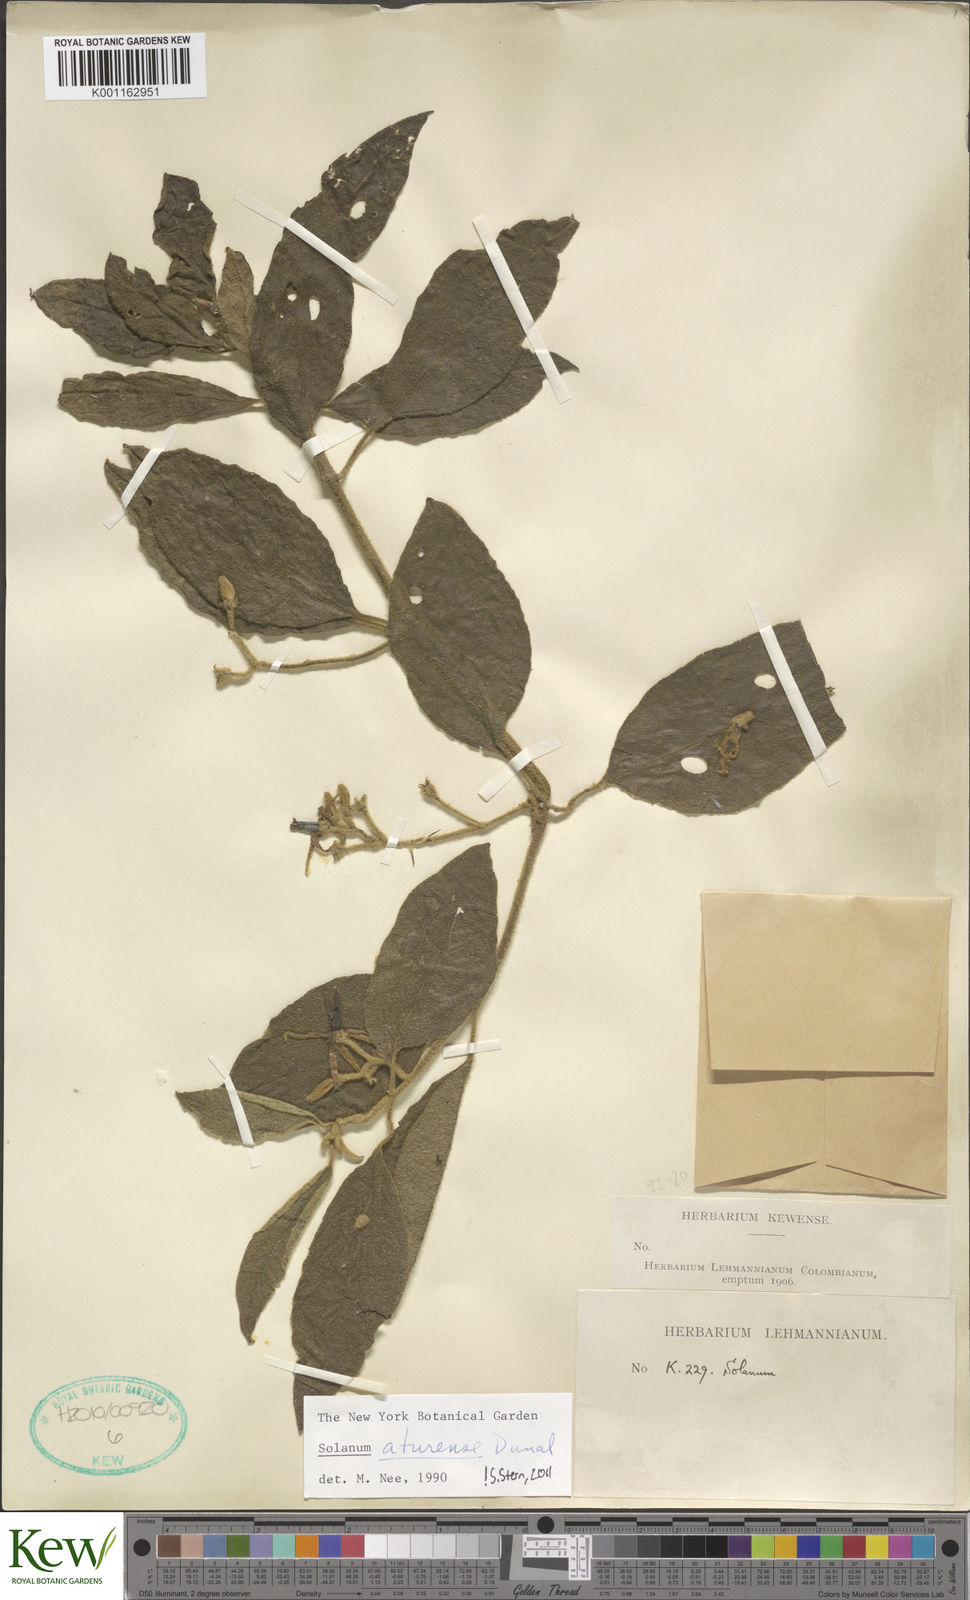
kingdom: Plantae
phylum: Tracheophyta
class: Magnoliopsida
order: Solanales
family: Solanaceae
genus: Solanum
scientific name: Solanum aturense
